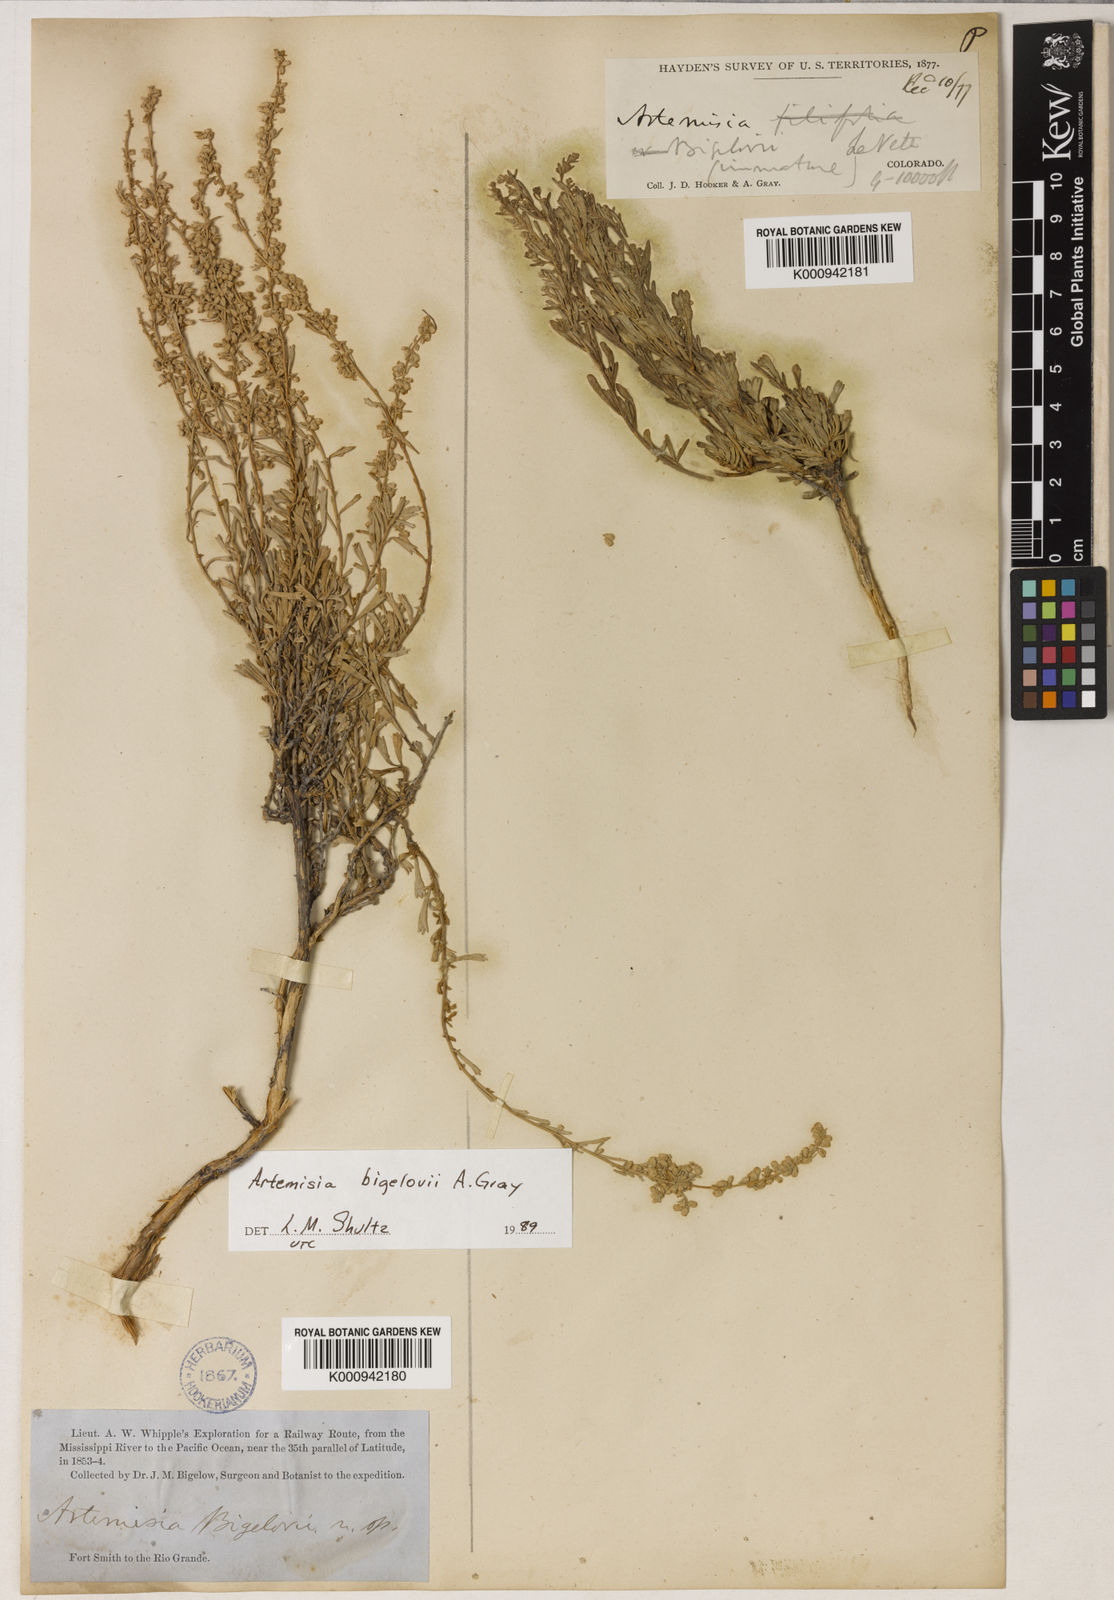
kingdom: Plantae
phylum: Tracheophyta
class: Magnoliopsida
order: Asterales
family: Asteraceae
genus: Artemisia
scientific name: Artemisia cana
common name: Silver sagebrush
